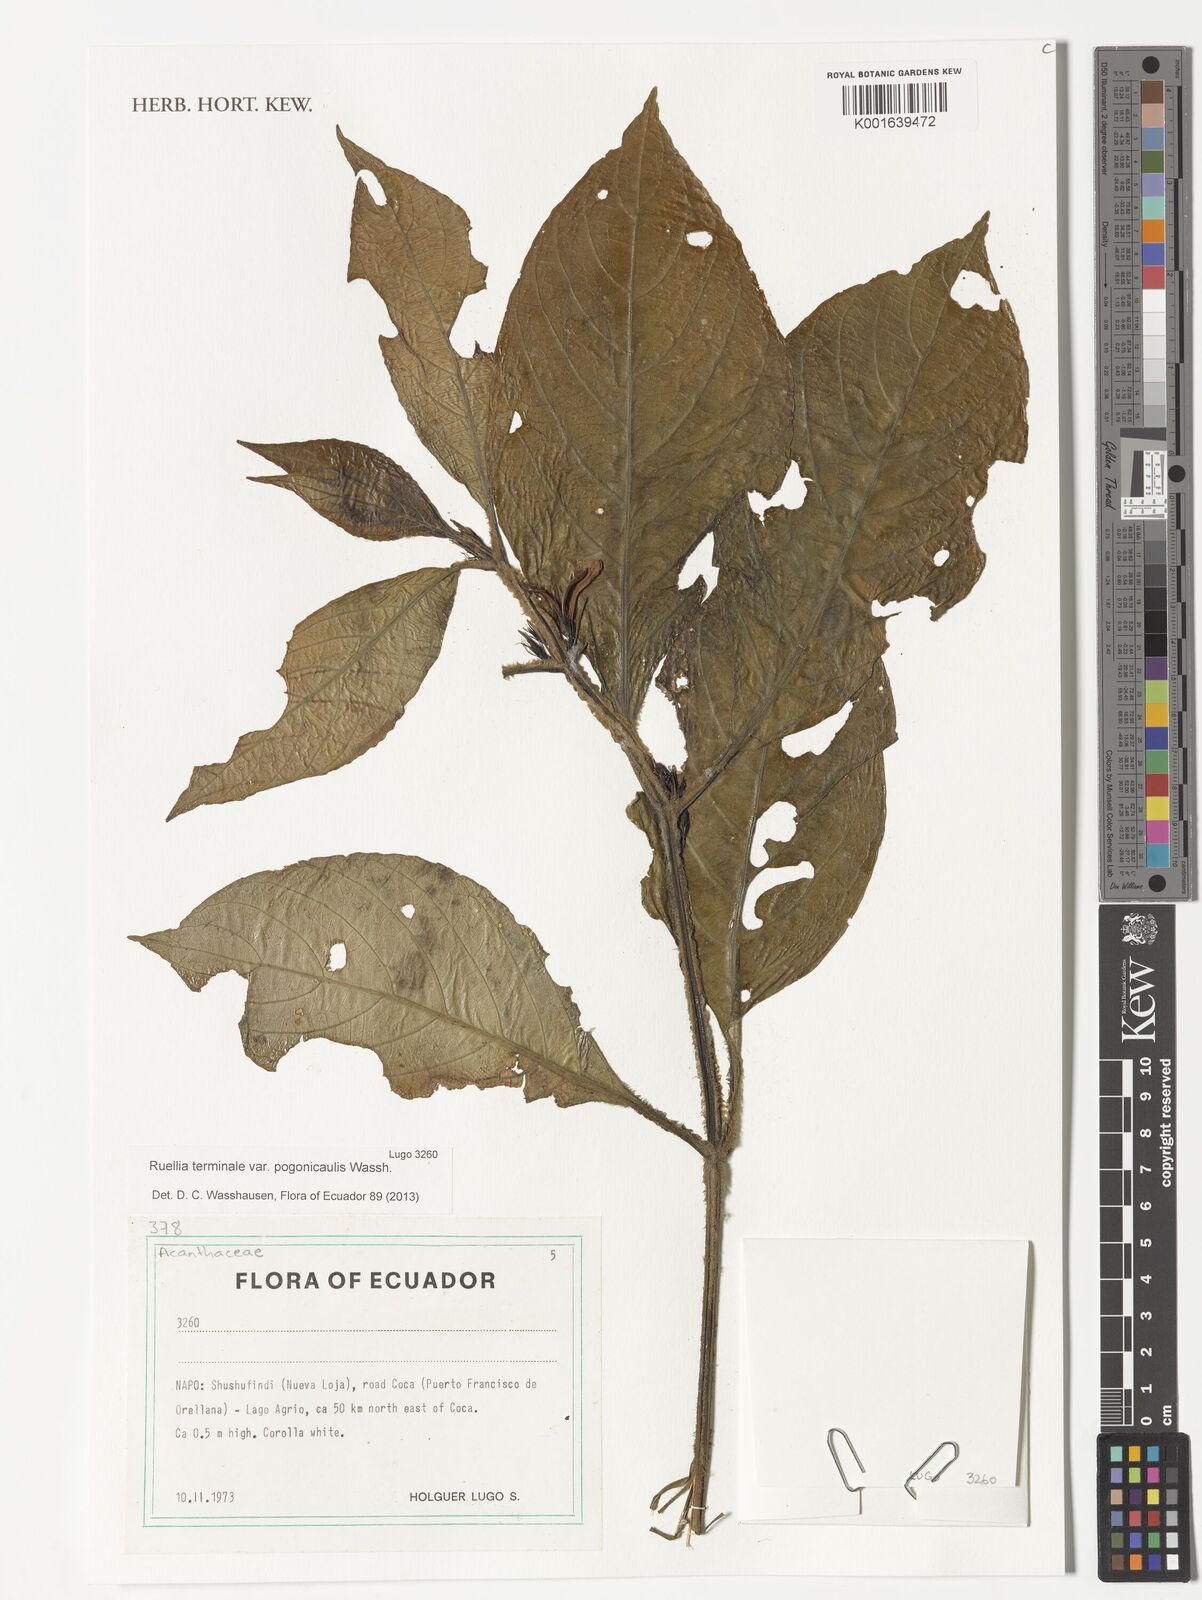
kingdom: Plantae
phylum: Tracheophyta
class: Magnoliopsida
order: Lamiales
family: Acanthaceae
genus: Ruellia
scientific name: Ruellia terminalis
